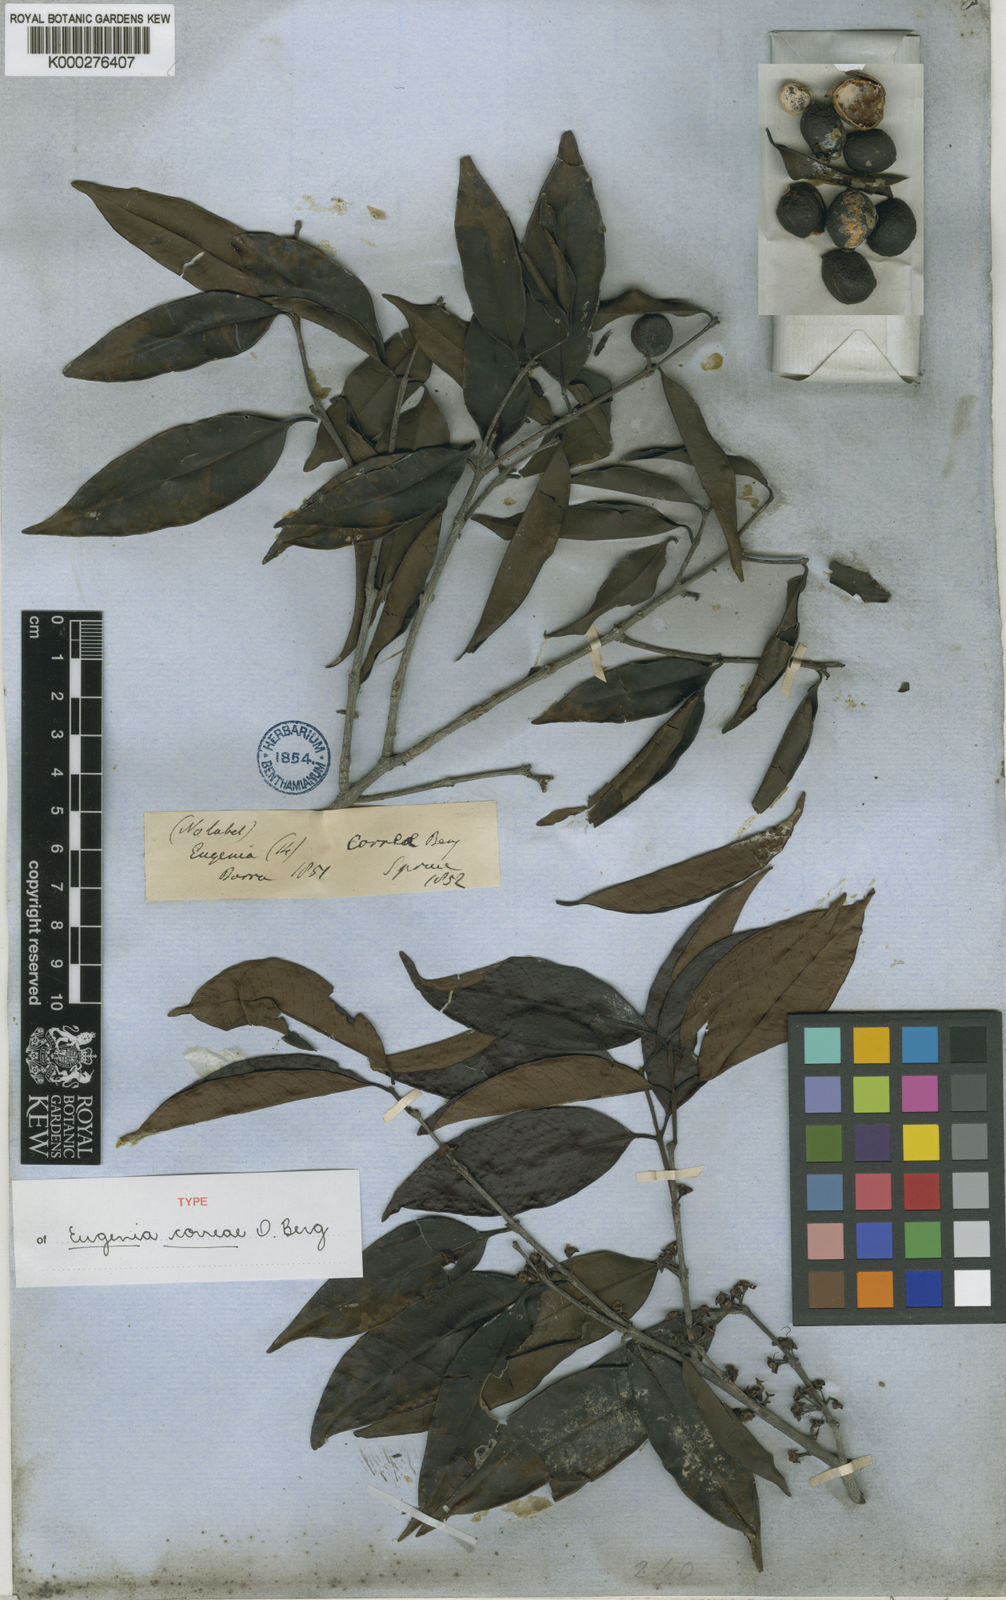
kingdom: Plantae
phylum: Tracheophyta
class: Magnoliopsida
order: Myrtales
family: Myrtaceae
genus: Eugenia
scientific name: Eugenia lambertiana
